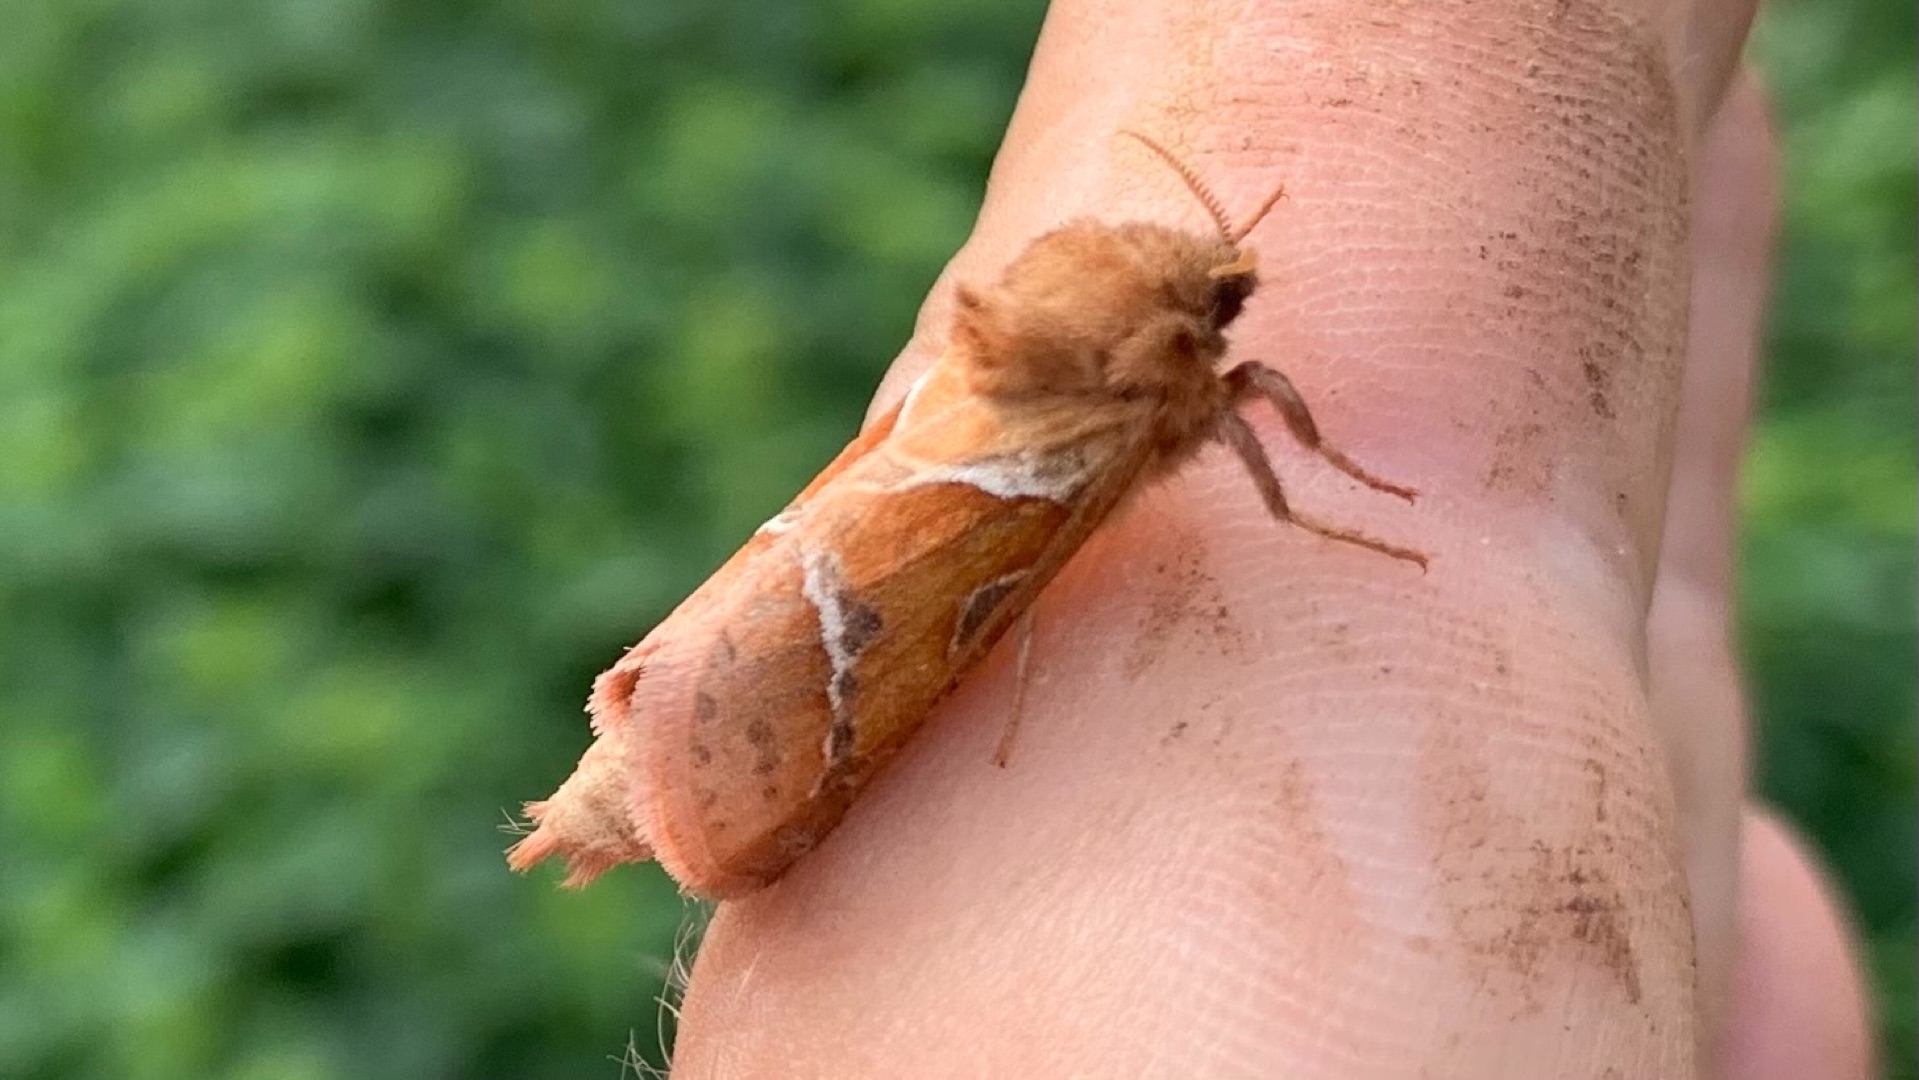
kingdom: Animalia
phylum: Arthropoda
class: Insecta
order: Lepidoptera
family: Hepialidae
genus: Triodia
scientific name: Triodia sylvina
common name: Skræpperodæder
